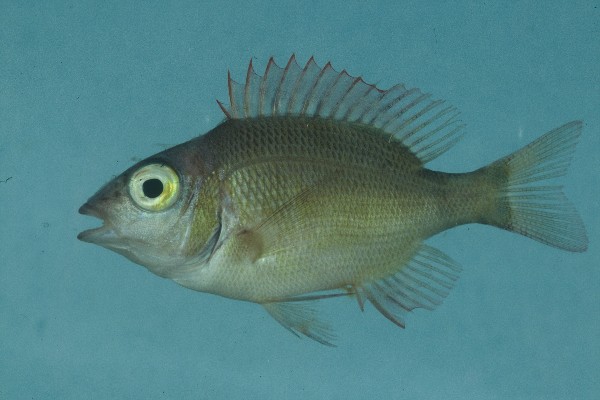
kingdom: Animalia
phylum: Chordata
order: Perciformes
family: Lethrinidae
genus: Lethrinus
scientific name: Lethrinus mahsena
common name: Sky emperor
